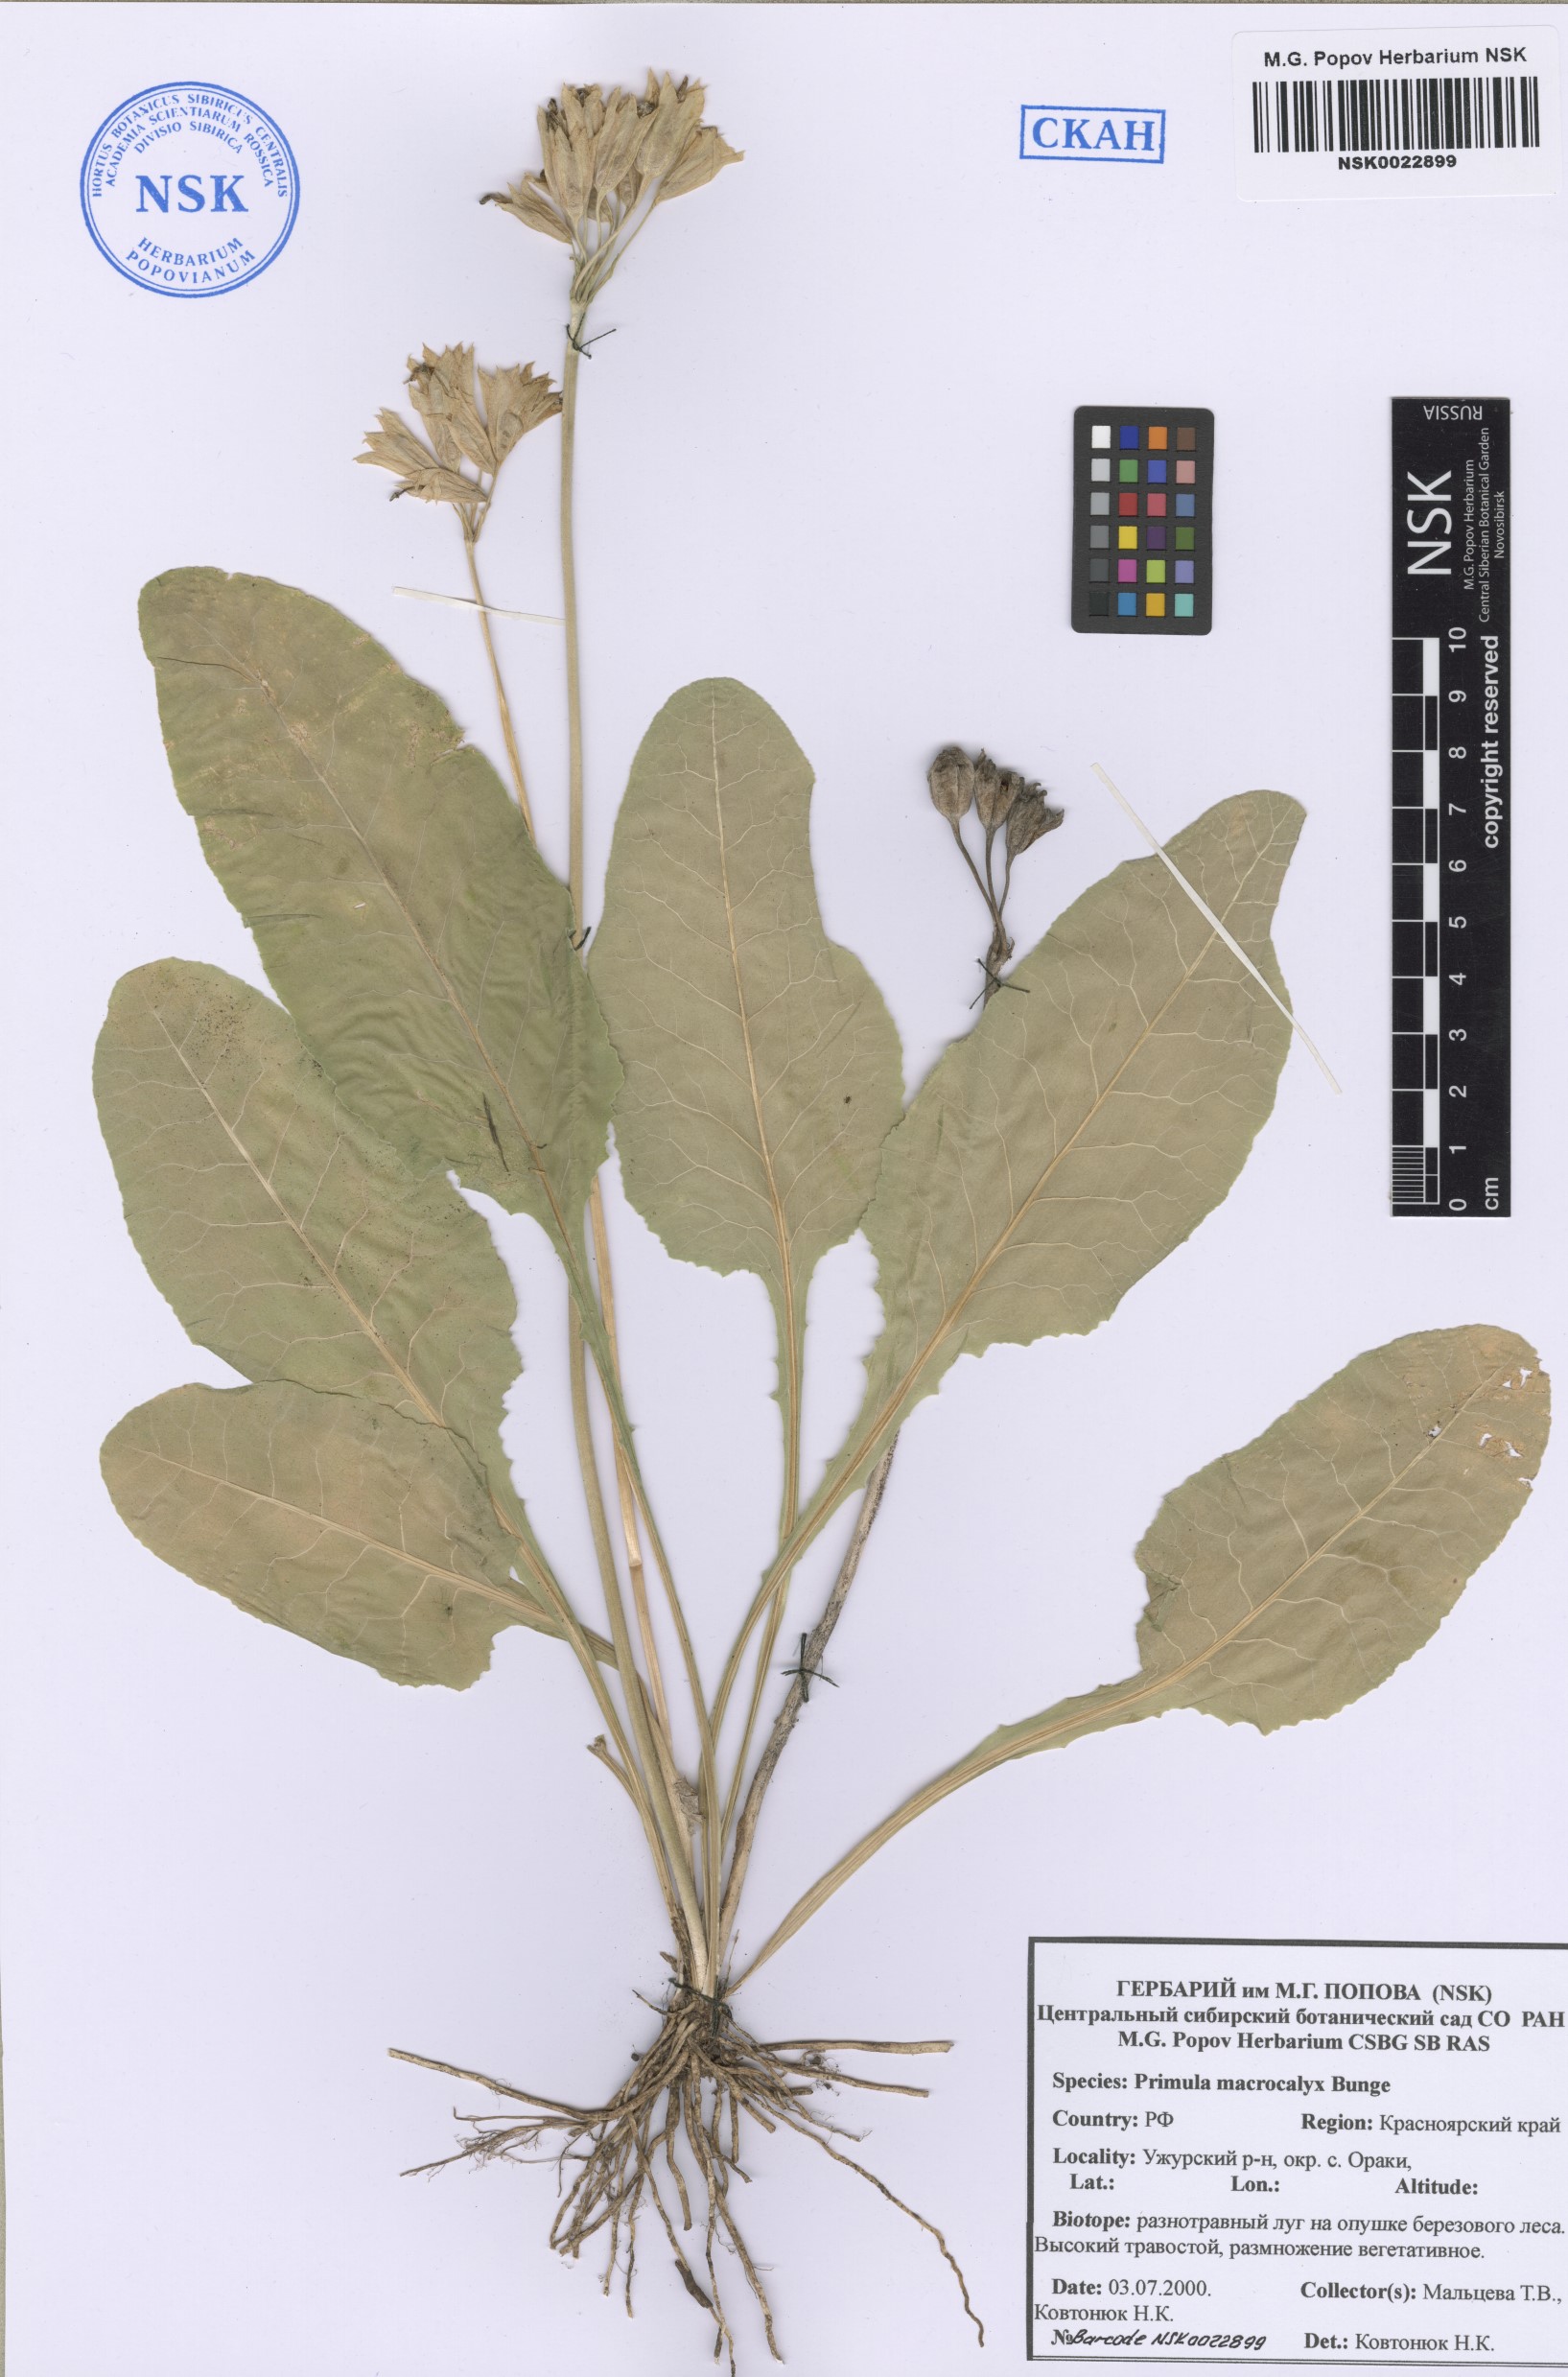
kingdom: Plantae
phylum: Tracheophyta
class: Magnoliopsida
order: Ericales
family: Primulaceae
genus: Primula
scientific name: Primula veris
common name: Cowslip
